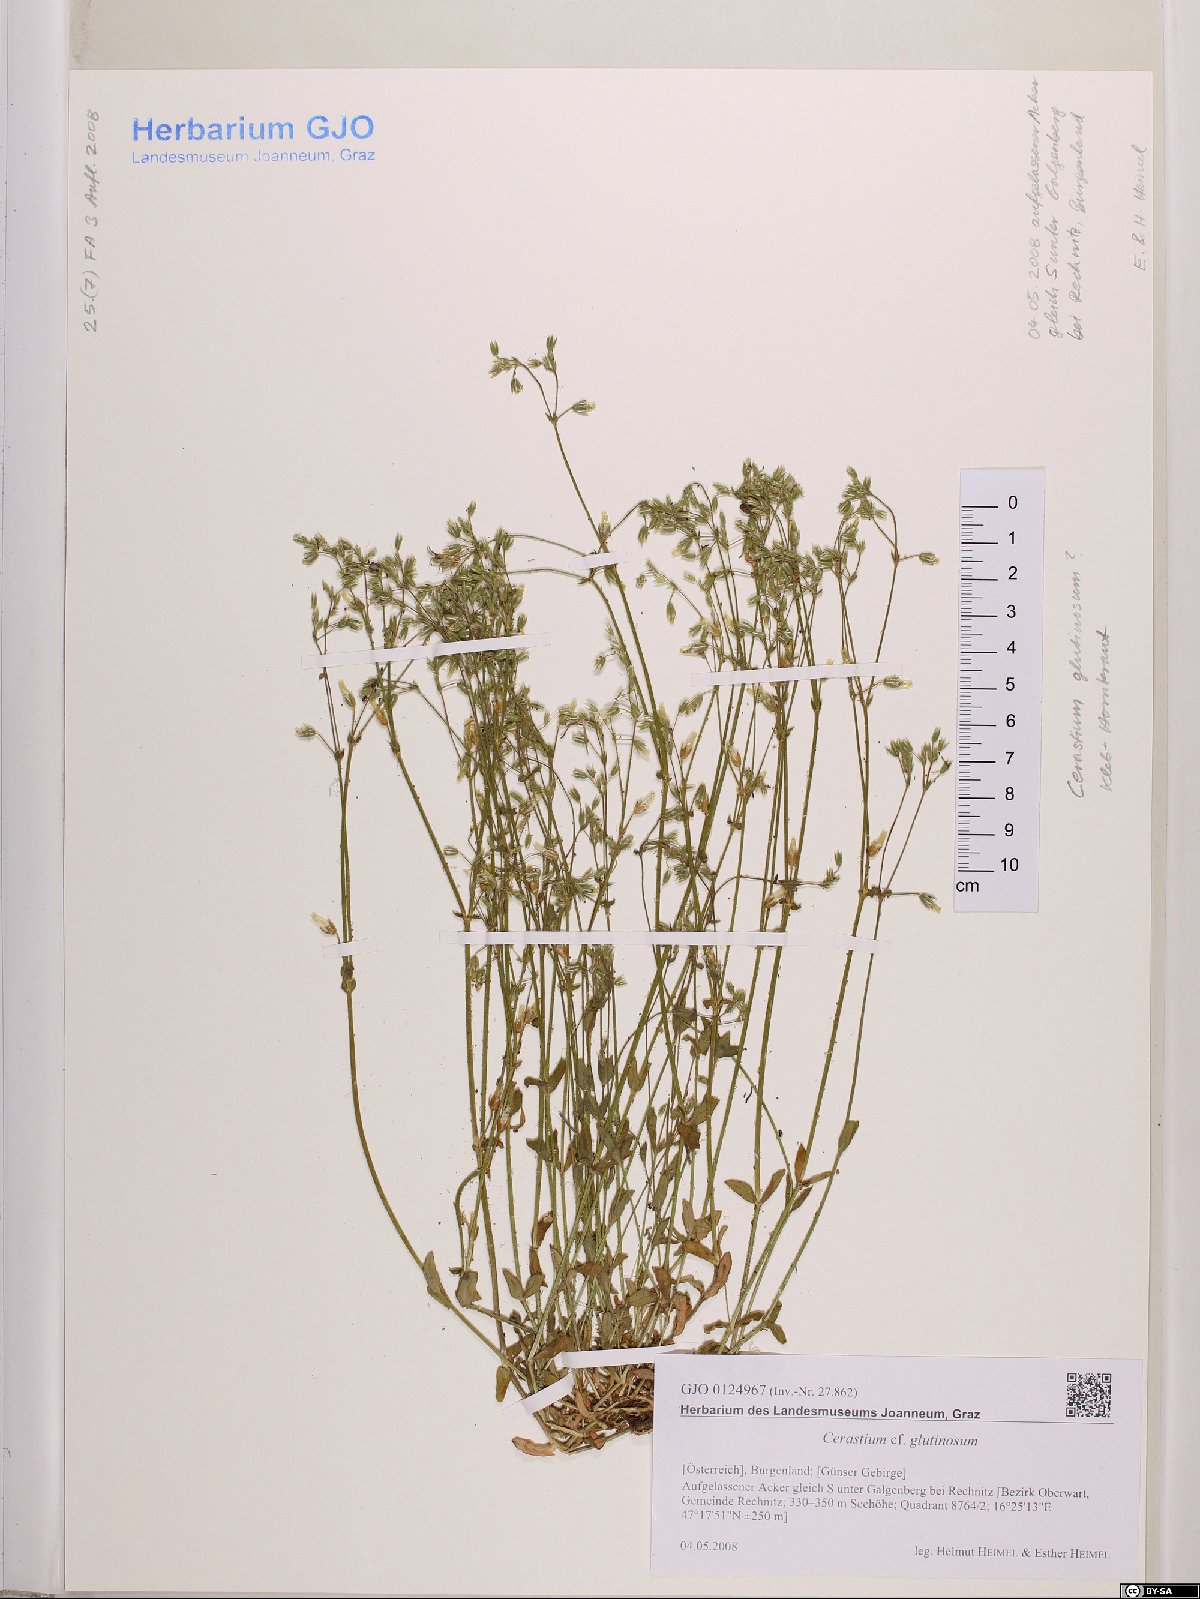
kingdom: Plantae
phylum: Tracheophyta
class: Magnoliopsida
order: Caryophyllales
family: Caryophyllaceae
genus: Cerastium
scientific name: Cerastium glutinosum
